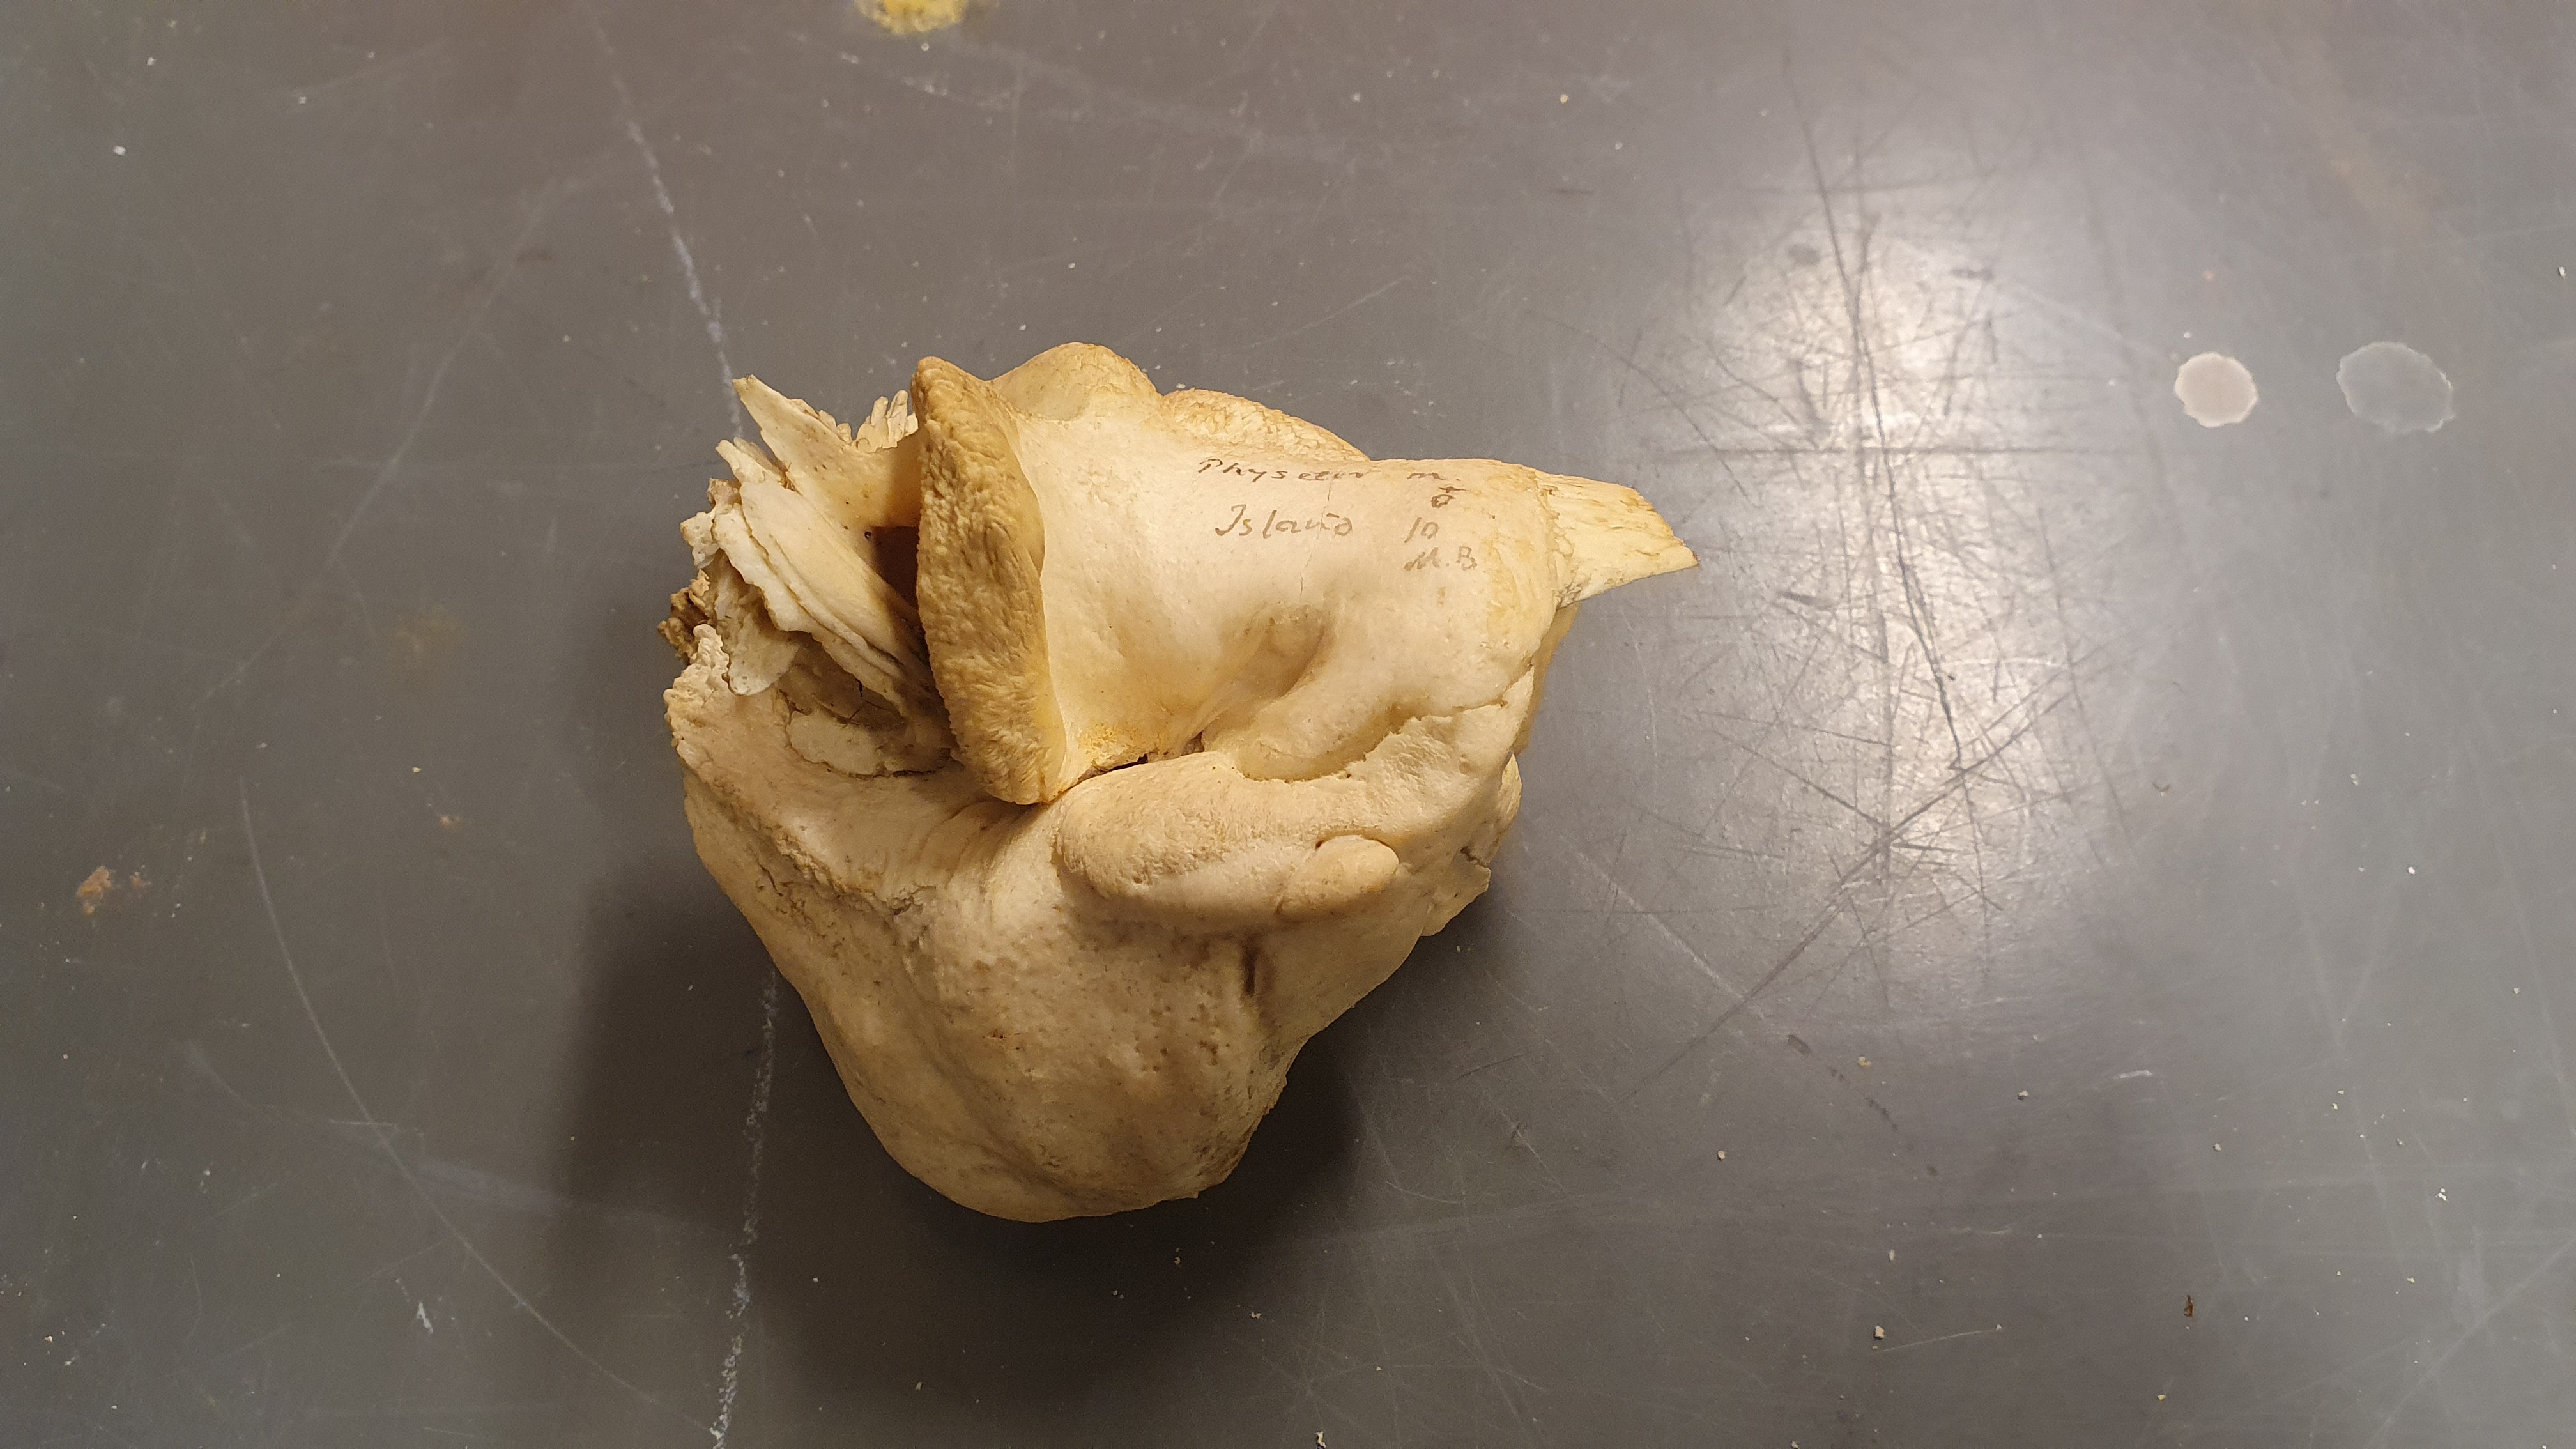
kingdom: Animalia
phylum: Chordata
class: Mammalia
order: Cetacea
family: Physeteridae
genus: Physeter
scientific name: Physeter macrocephalus
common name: Sperm whale
